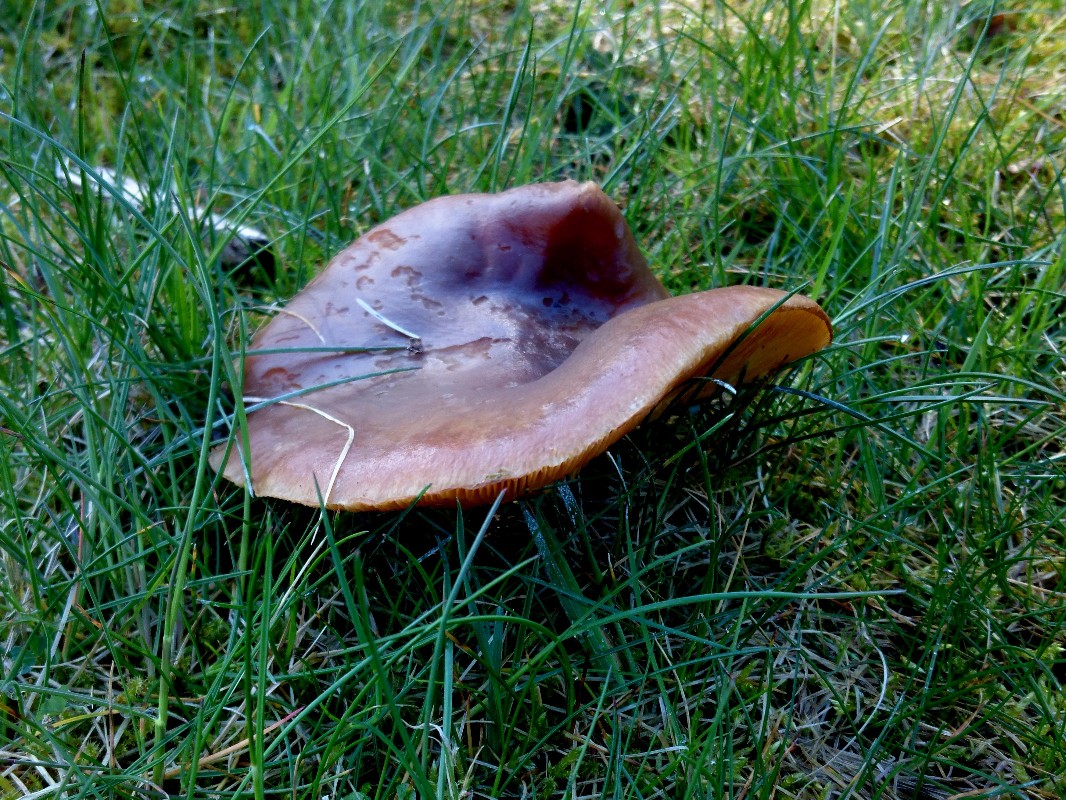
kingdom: Fungi
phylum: Basidiomycota
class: Agaricomycetes
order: Agaricales
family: Tricholomataceae
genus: Melanoleuca
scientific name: Melanoleuca cognata
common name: gyldengrå munkehat
